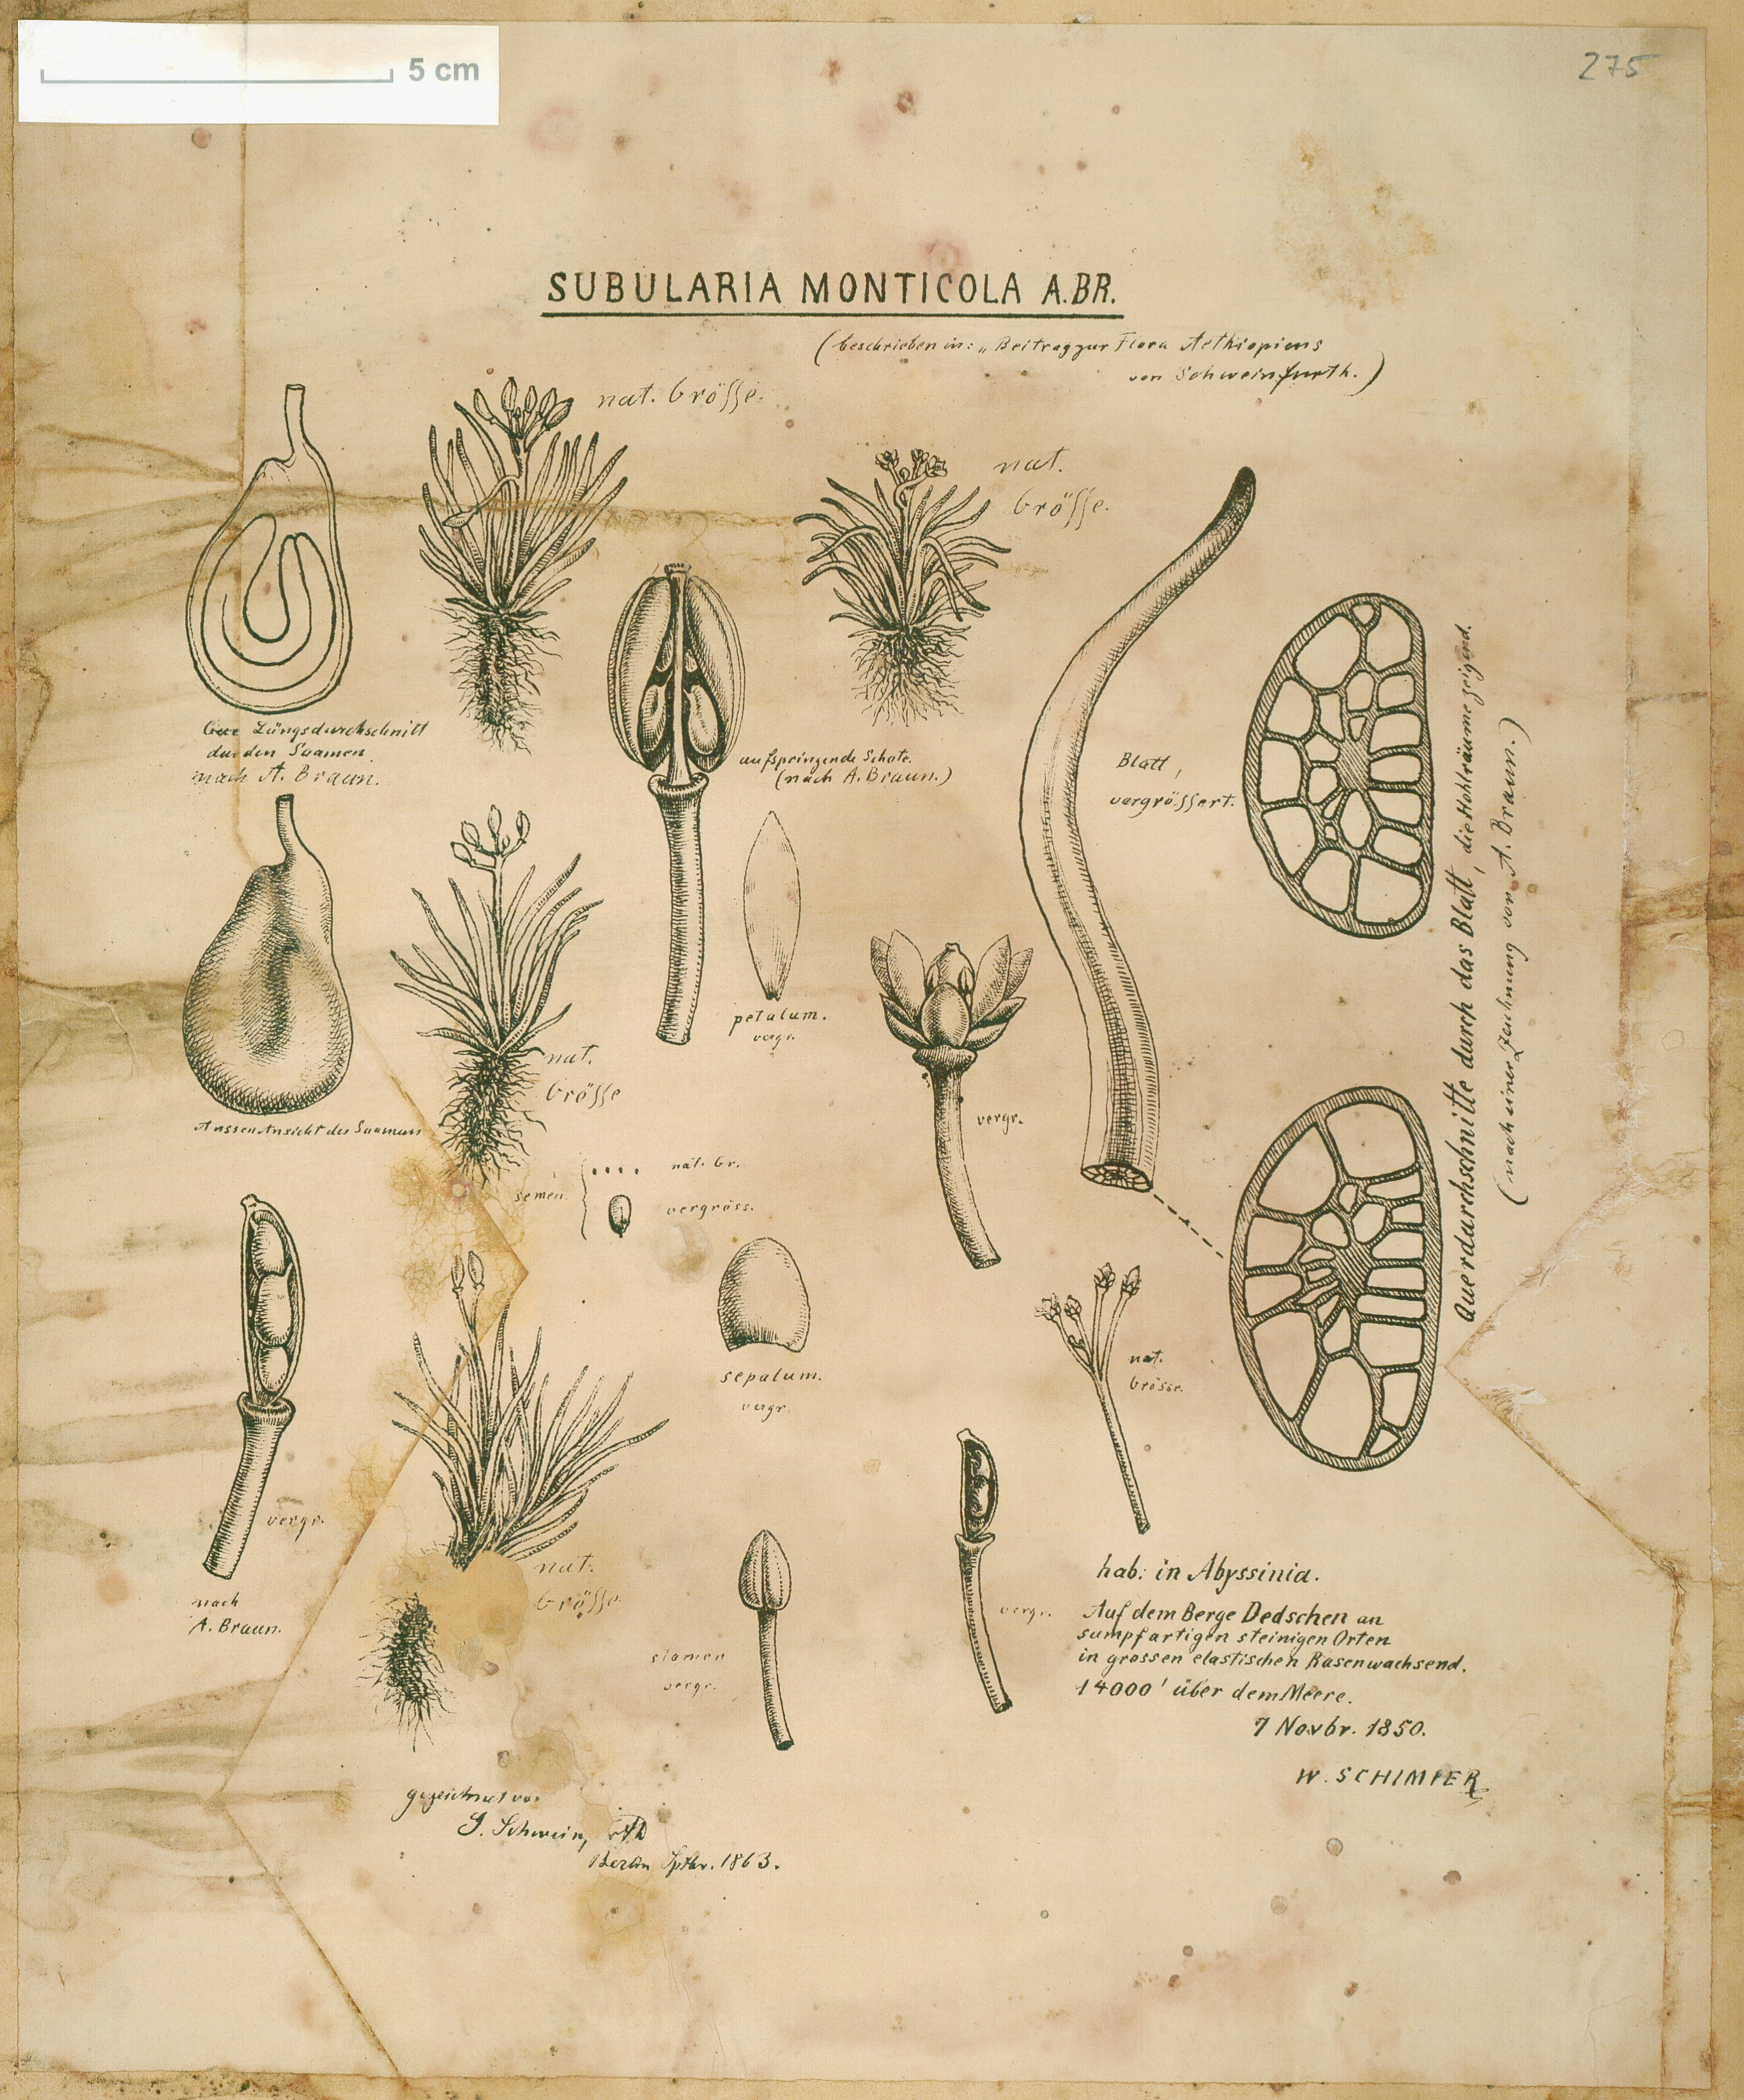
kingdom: Plantae
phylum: Tracheophyta
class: Magnoliopsida
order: Brassicales
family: Brassicaceae
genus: Subularia
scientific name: Subularia monticola
